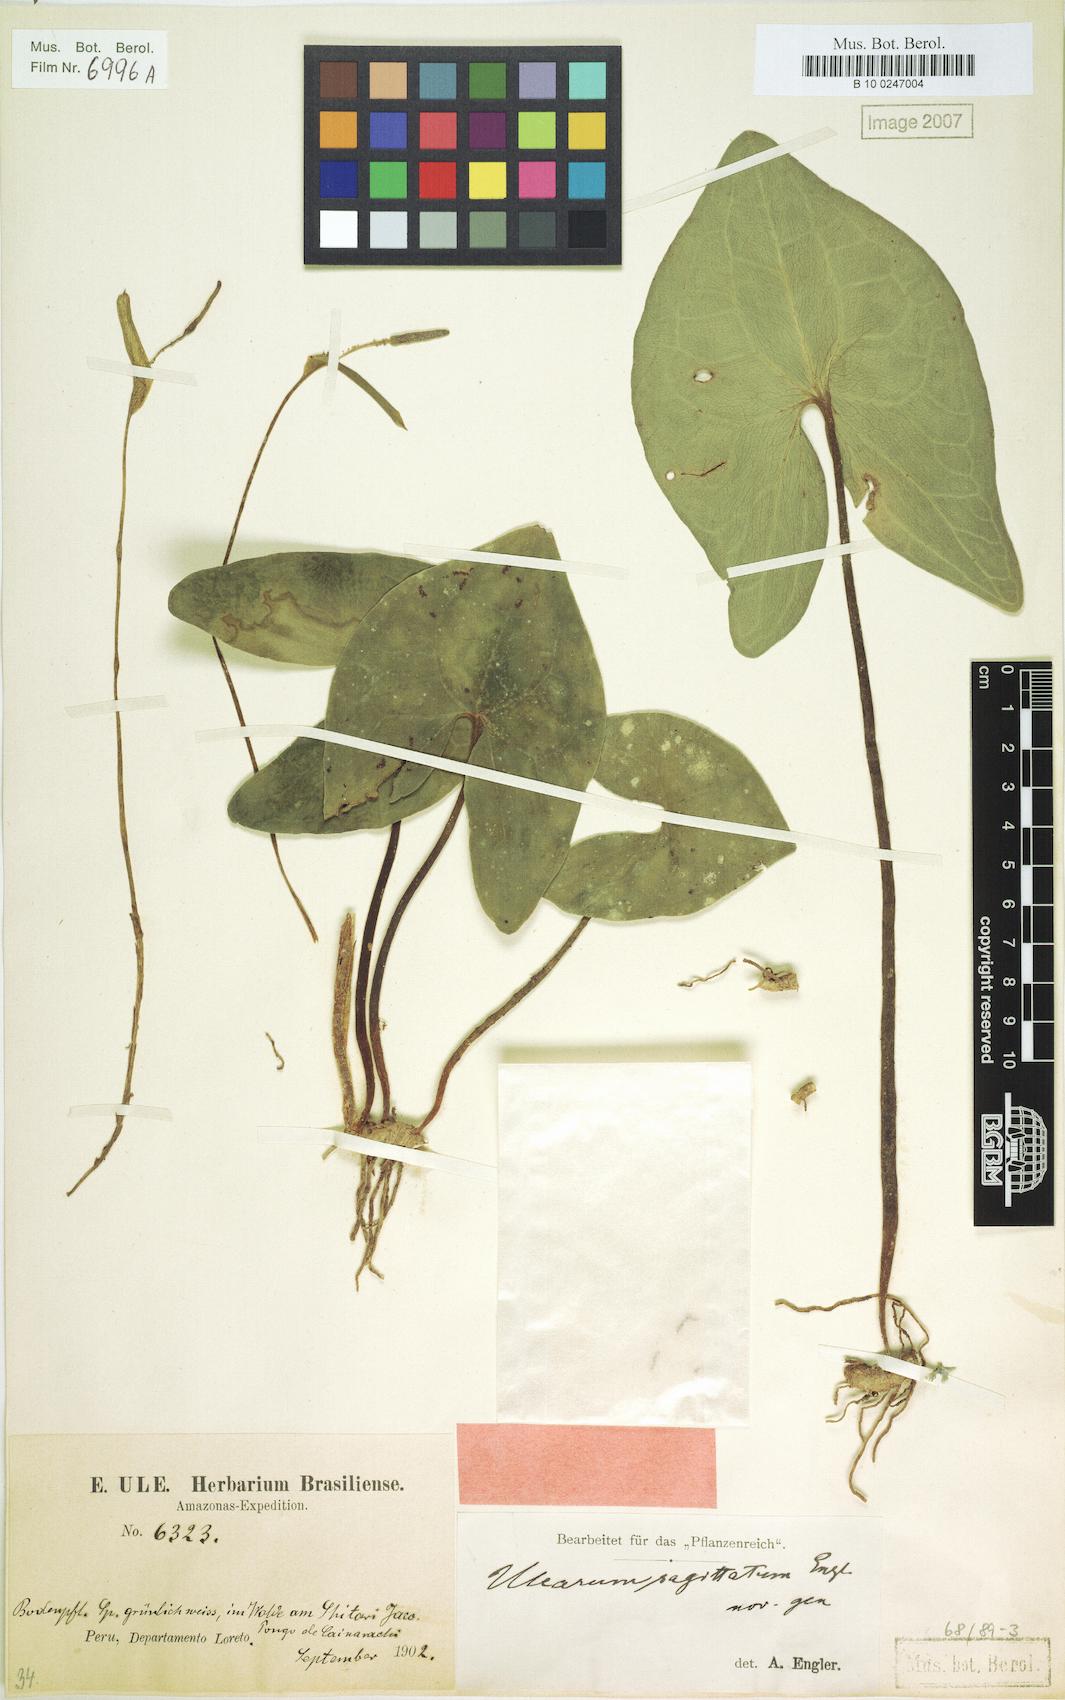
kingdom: Plantae
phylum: Tracheophyta
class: Liliopsida
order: Alismatales
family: Araceae
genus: Ulearum
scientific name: Ulearum sagittatum
